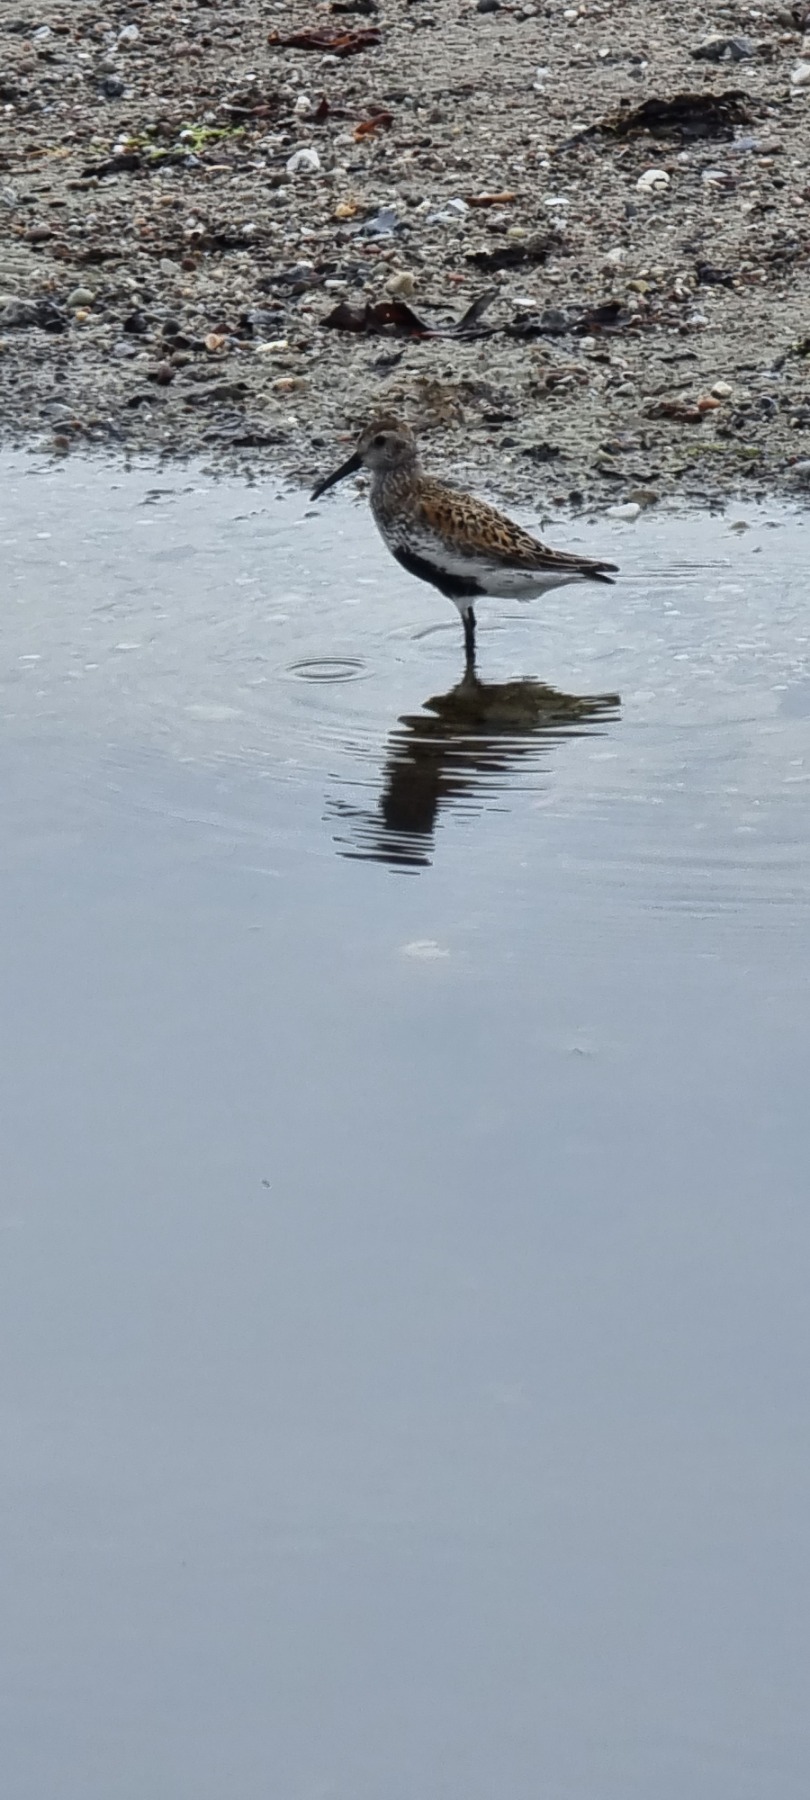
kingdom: Animalia
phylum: Chordata
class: Aves
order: Charadriiformes
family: Scolopacidae
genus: Calidris
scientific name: Calidris alpina
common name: Almindelig ryle
